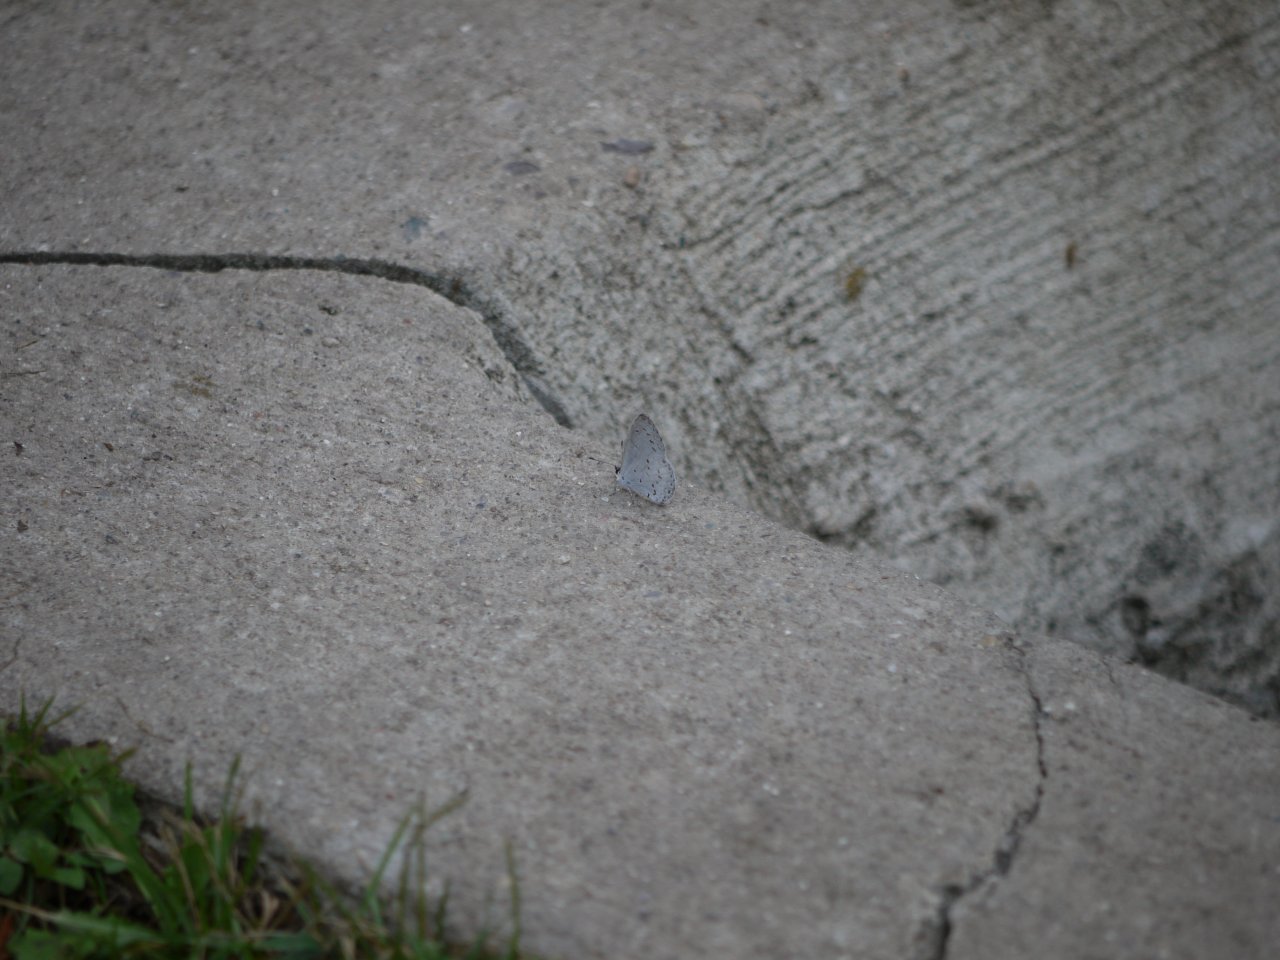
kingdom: Animalia
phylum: Arthropoda
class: Insecta
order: Lepidoptera
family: Lycaenidae
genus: Celastrina
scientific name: Celastrina
